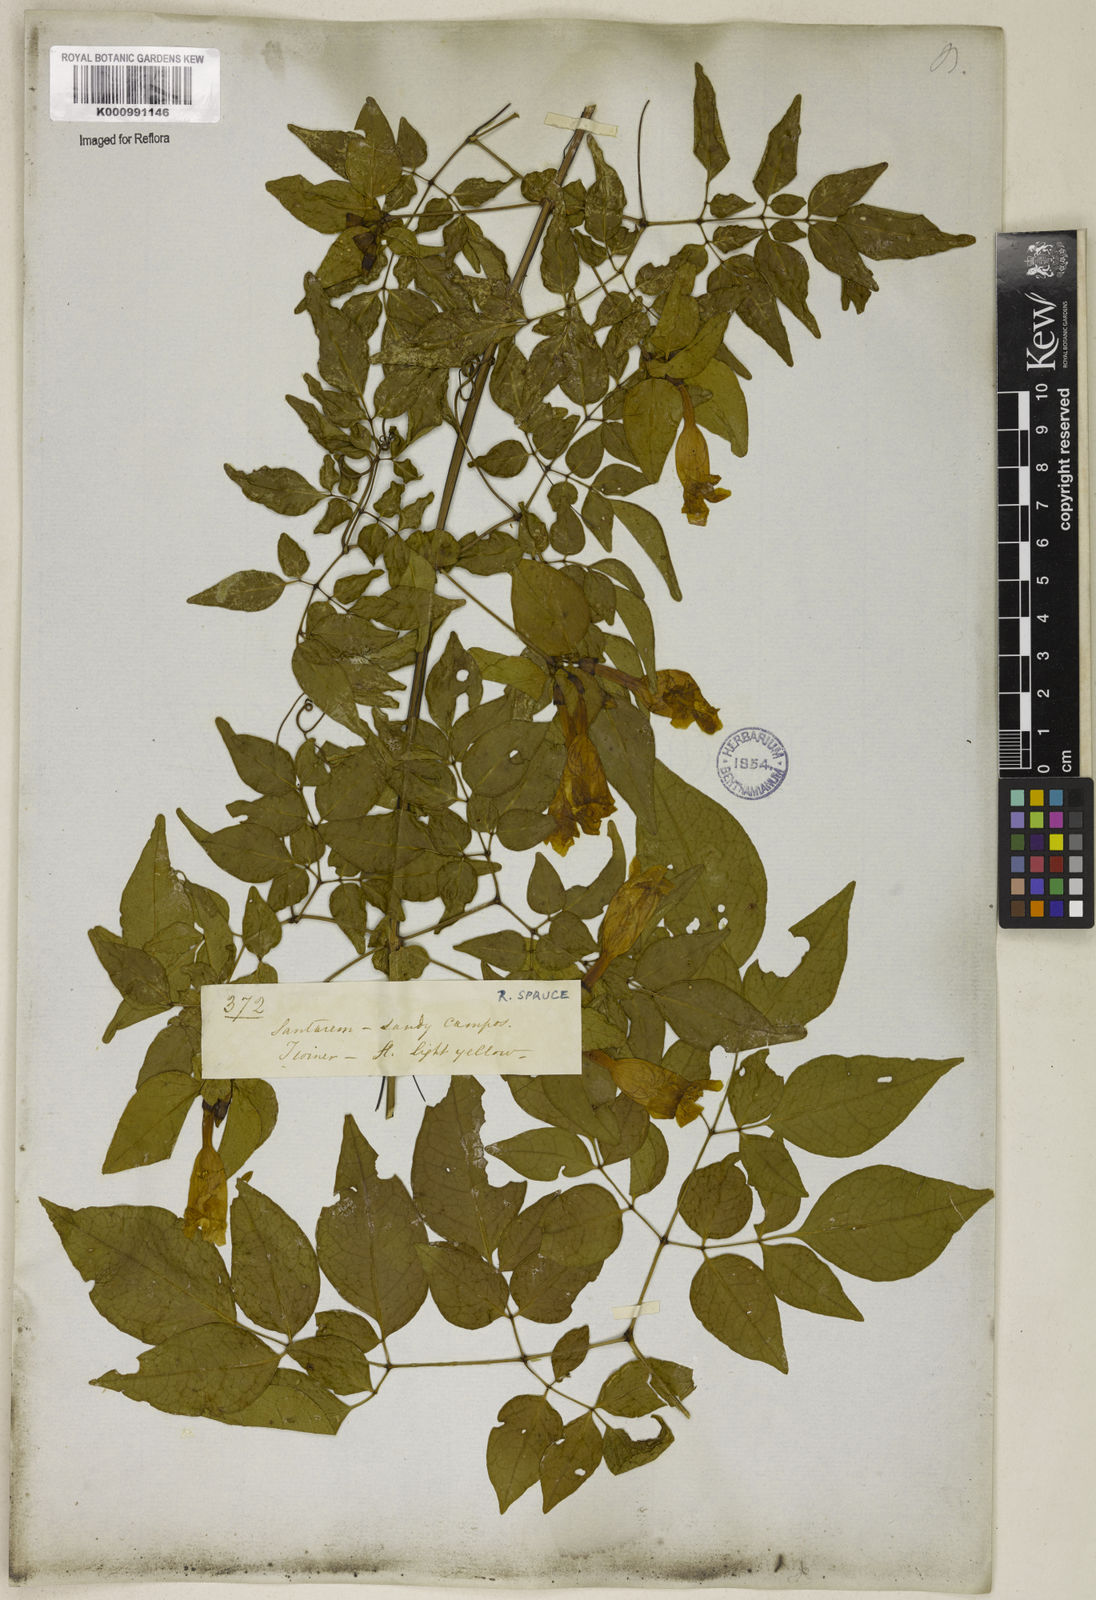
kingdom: Plantae
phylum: Tracheophyta
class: Magnoliopsida
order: Lamiales
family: Bignoniaceae
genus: Pleonotoma
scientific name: Pleonotoma jasminifolia
